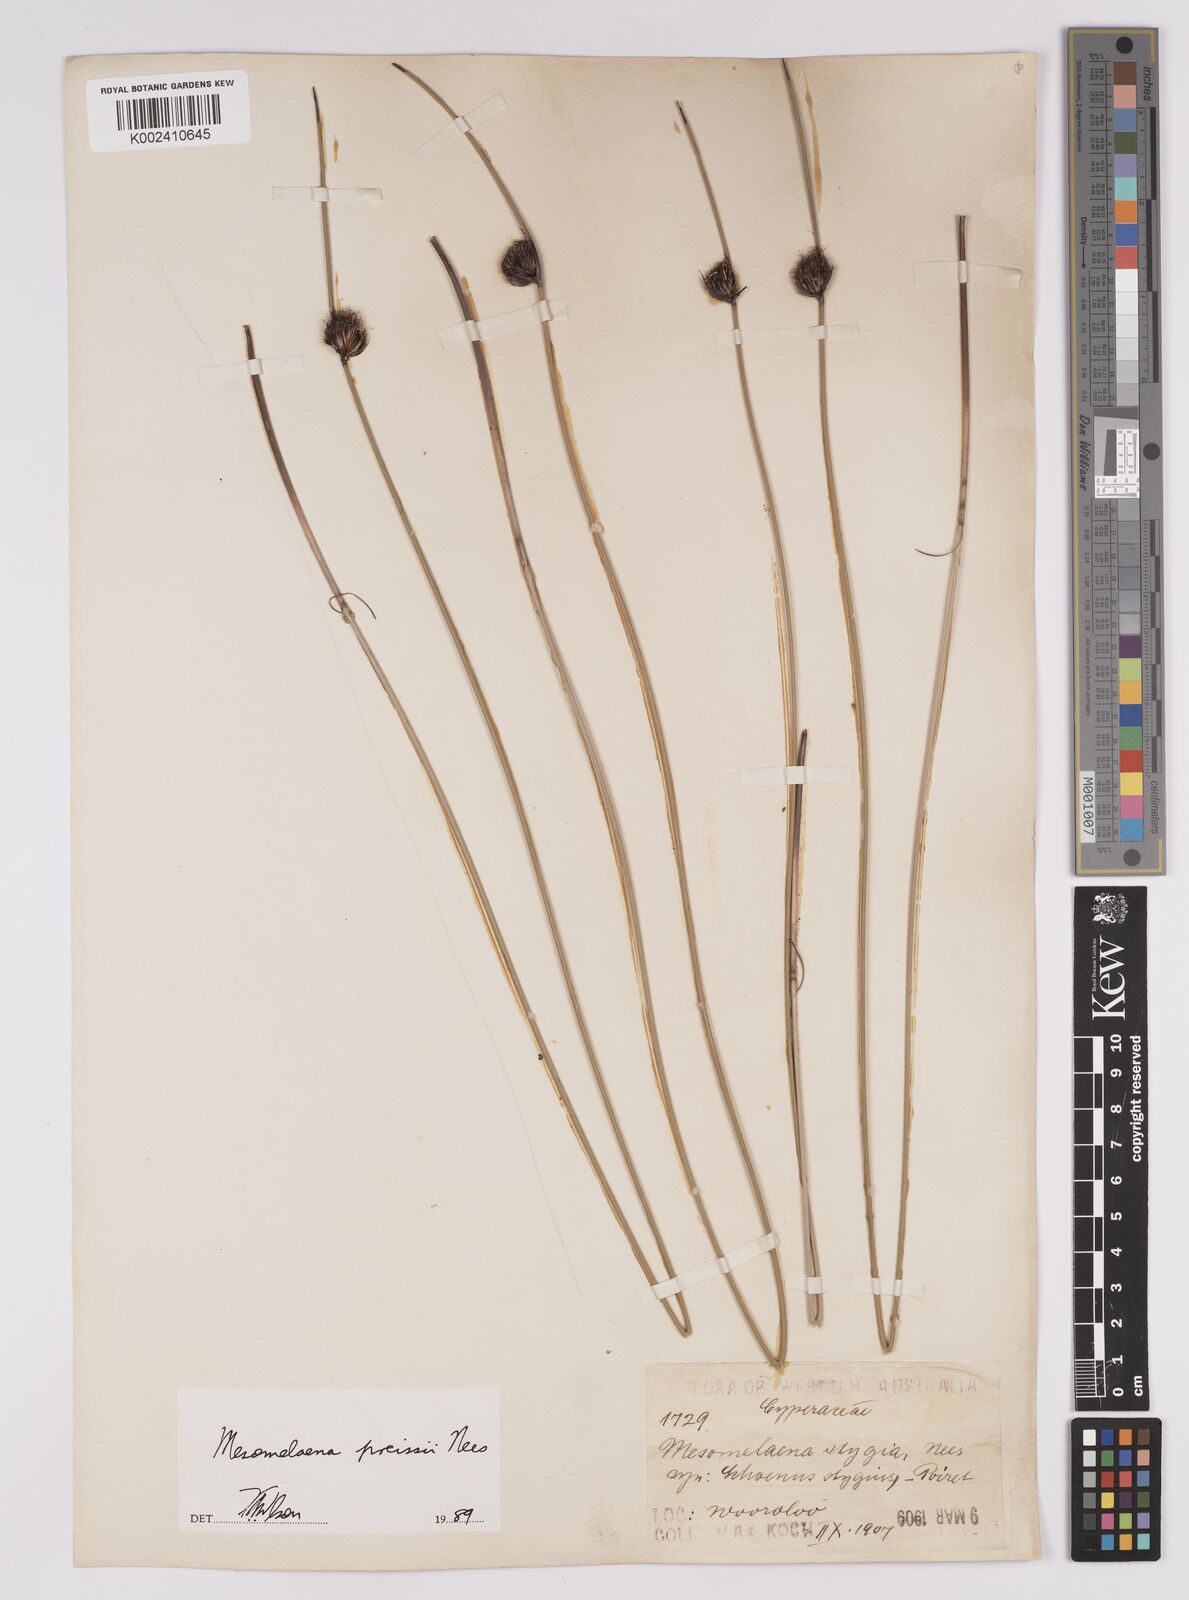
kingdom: Plantae
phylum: Tracheophyta
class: Liliopsida
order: Poales
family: Cyperaceae
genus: Mesomelaena
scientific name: Mesomelaena preissii
